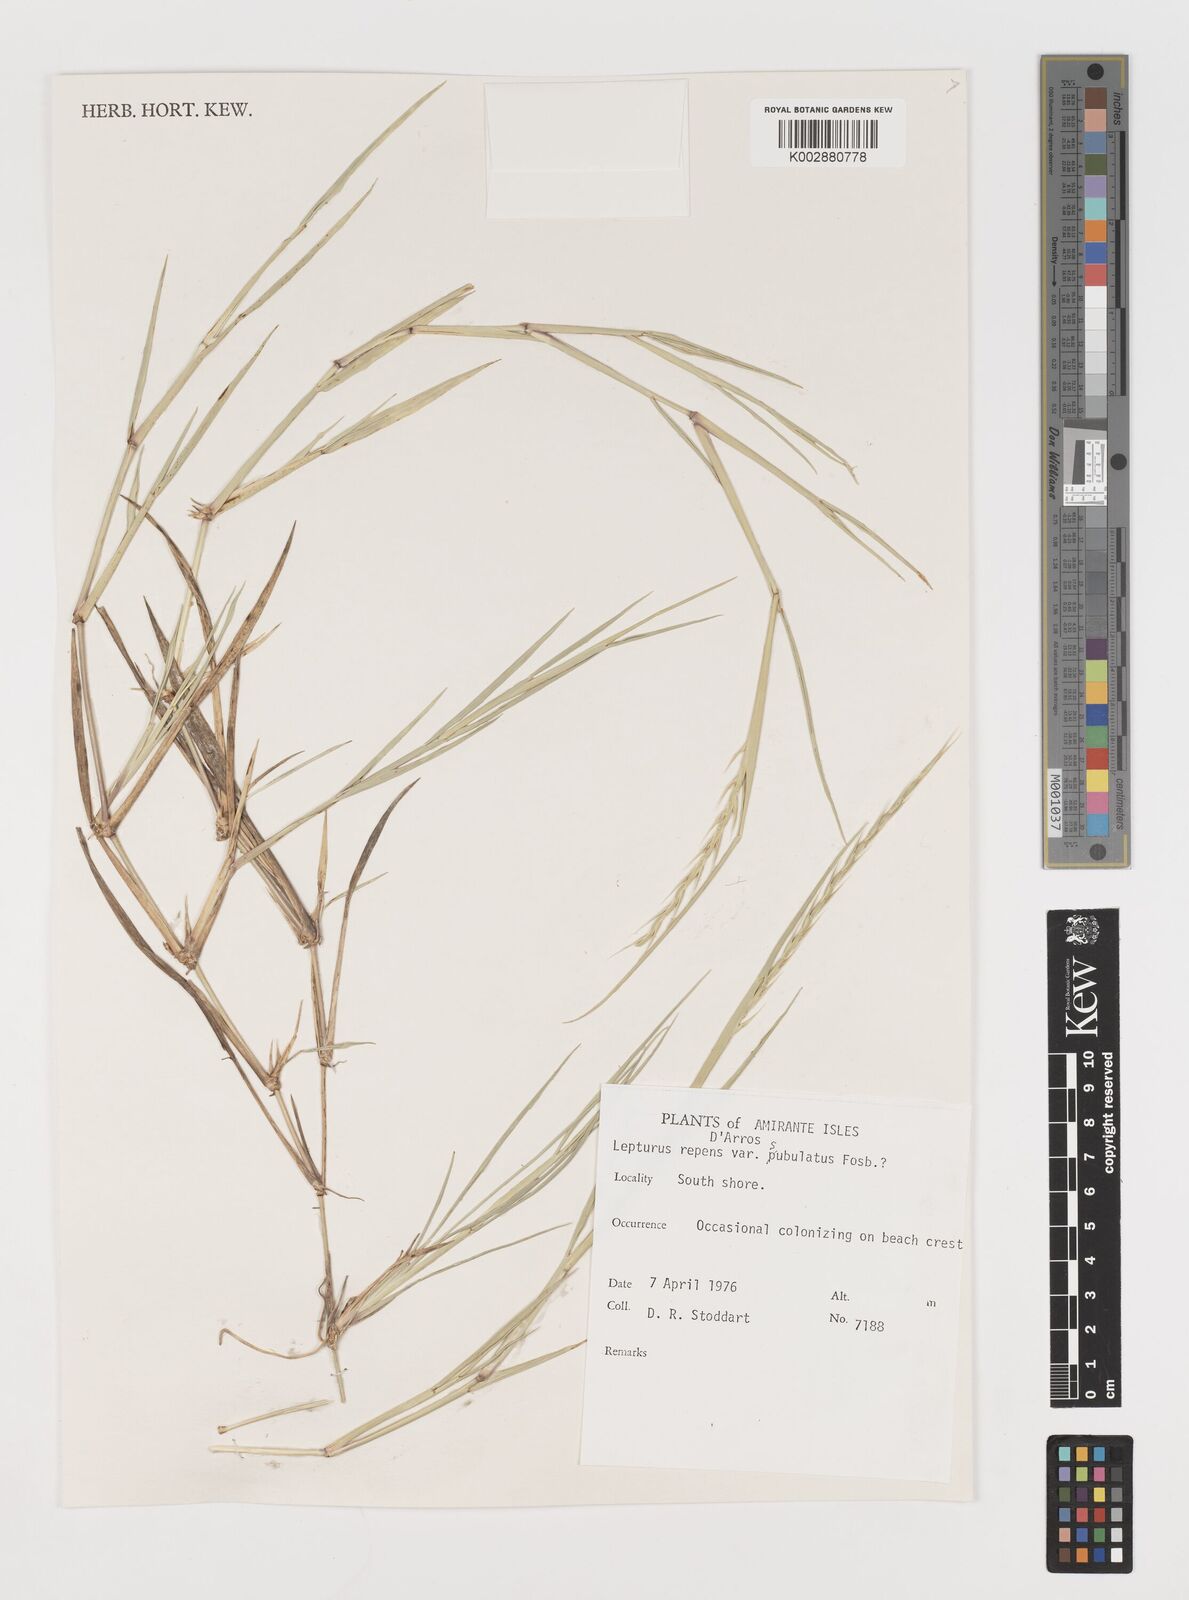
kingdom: Plantae
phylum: Tracheophyta
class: Liliopsida
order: Poales
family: Poaceae
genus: Lepturus
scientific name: Lepturus repens
